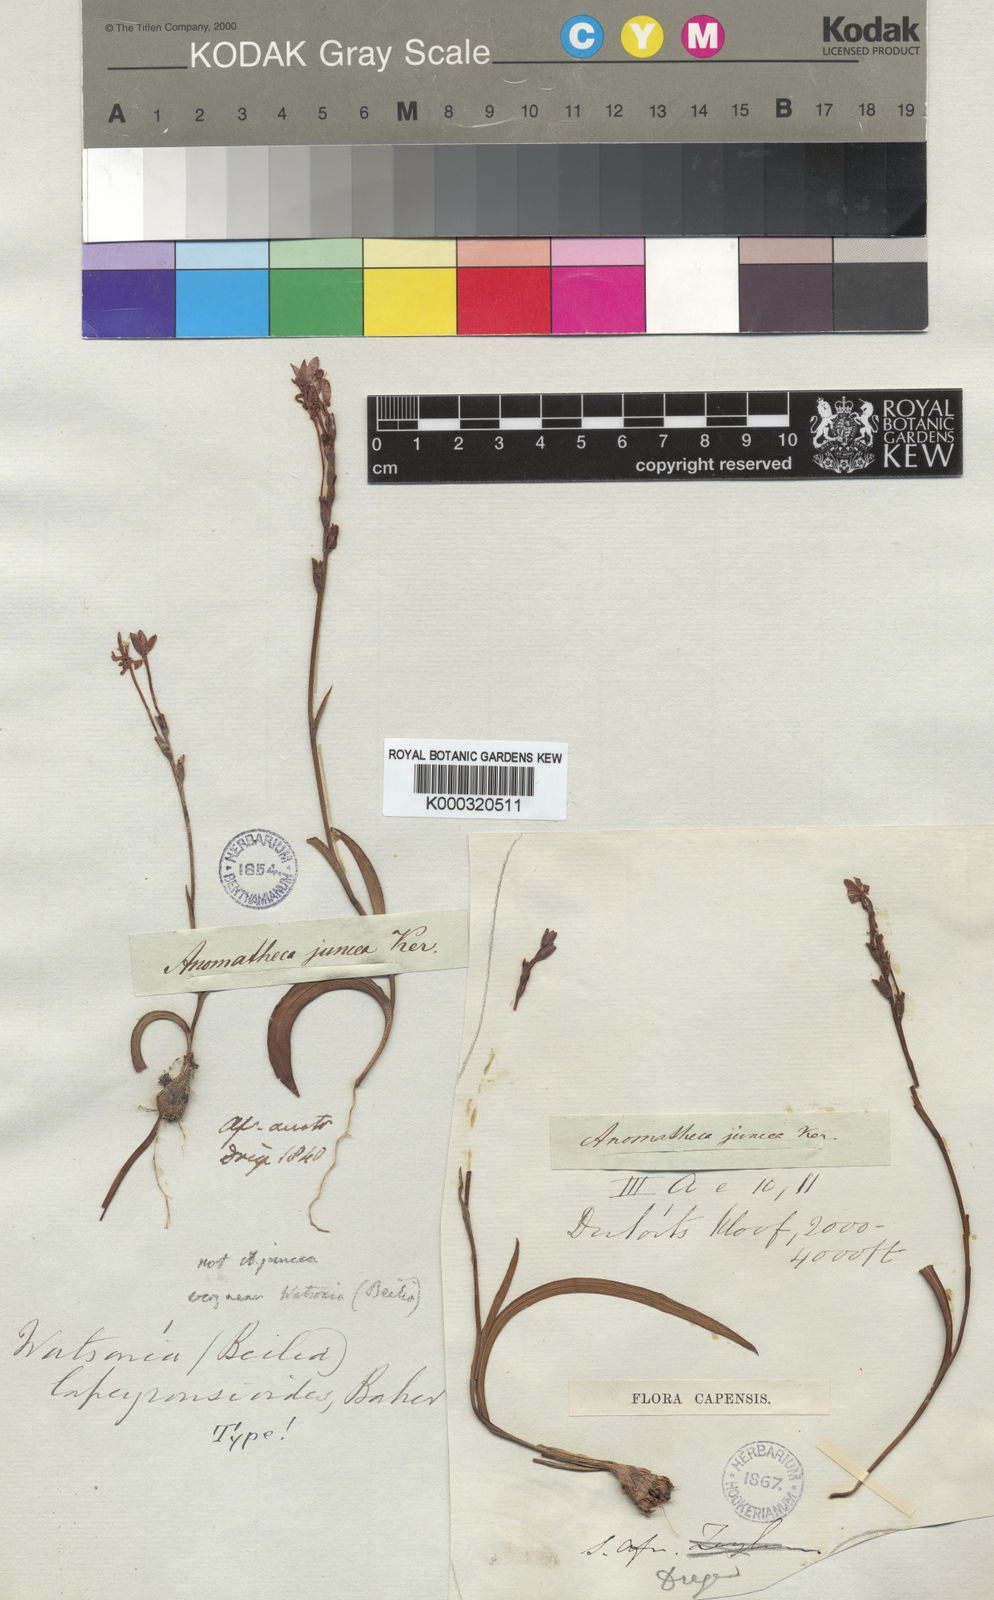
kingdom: Plantae
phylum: Tracheophyta
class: Liliopsida
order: Asparagales
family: Iridaceae
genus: Thereianthus
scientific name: Thereianthus
